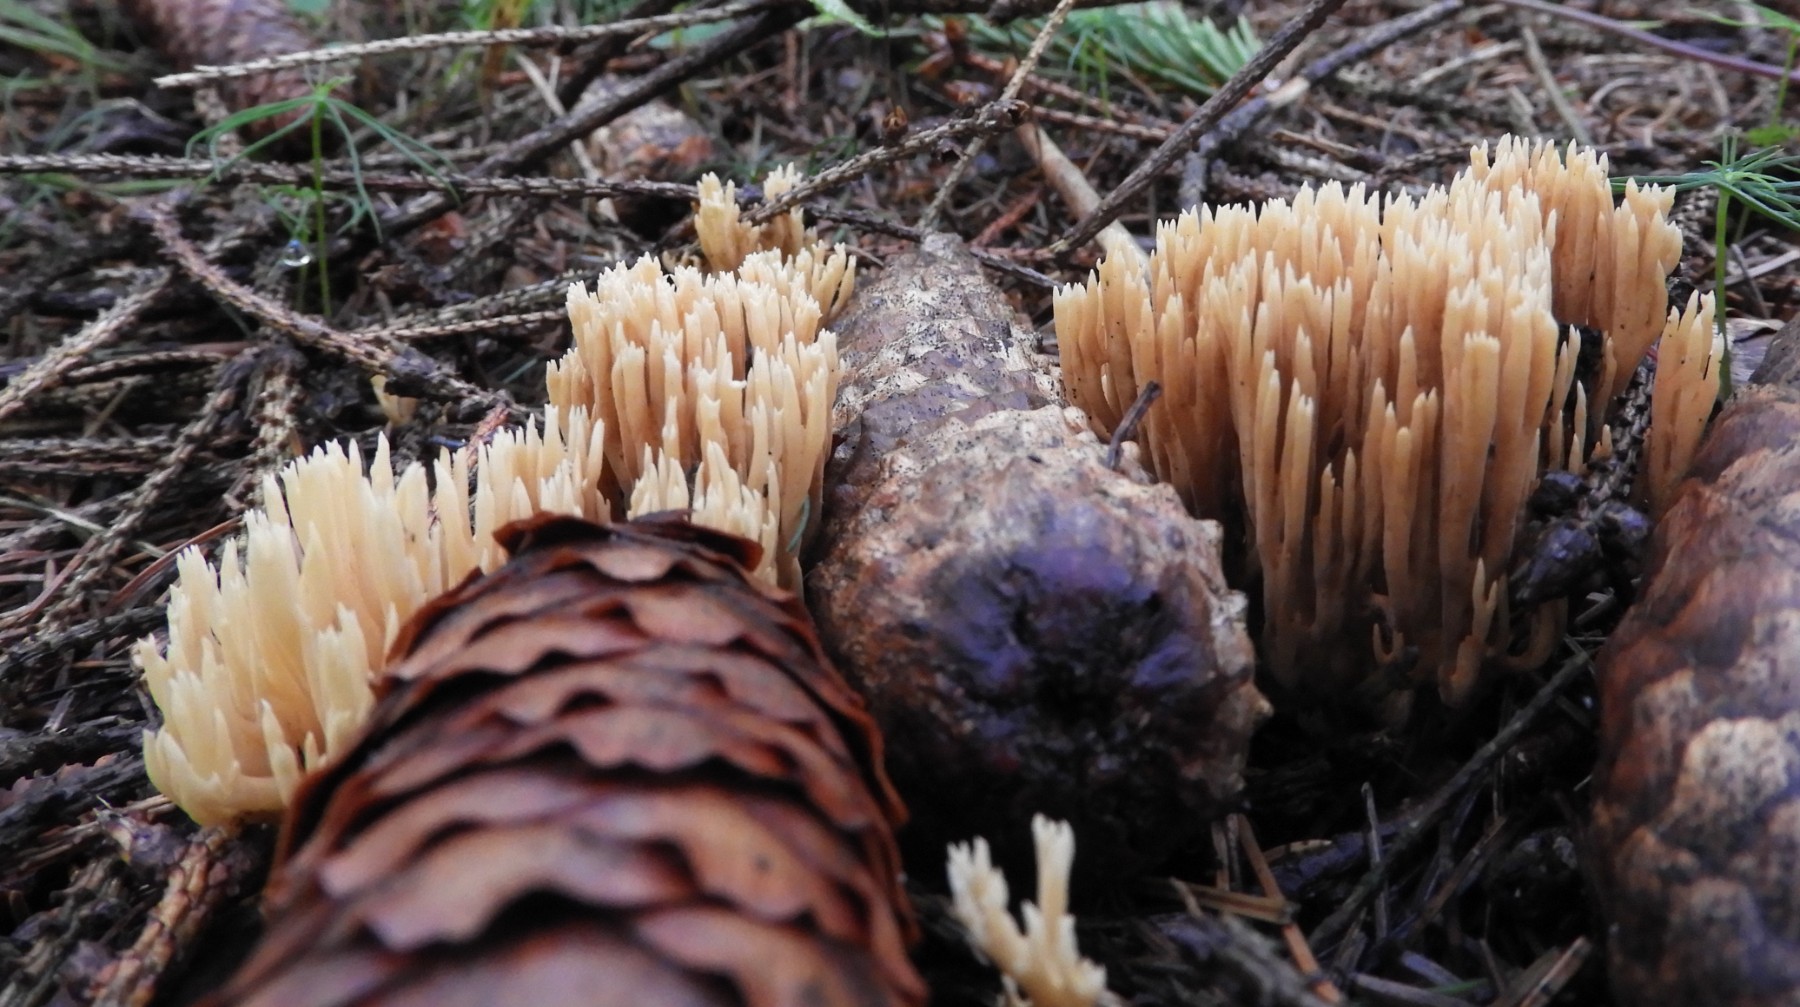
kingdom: Fungi
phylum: Basidiomycota
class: Agaricomycetes
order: Gomphales
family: Gomphaceae
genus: Phaeoclavulina
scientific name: Phaeoclavulina eumorpha
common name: gran-koralsvamp
